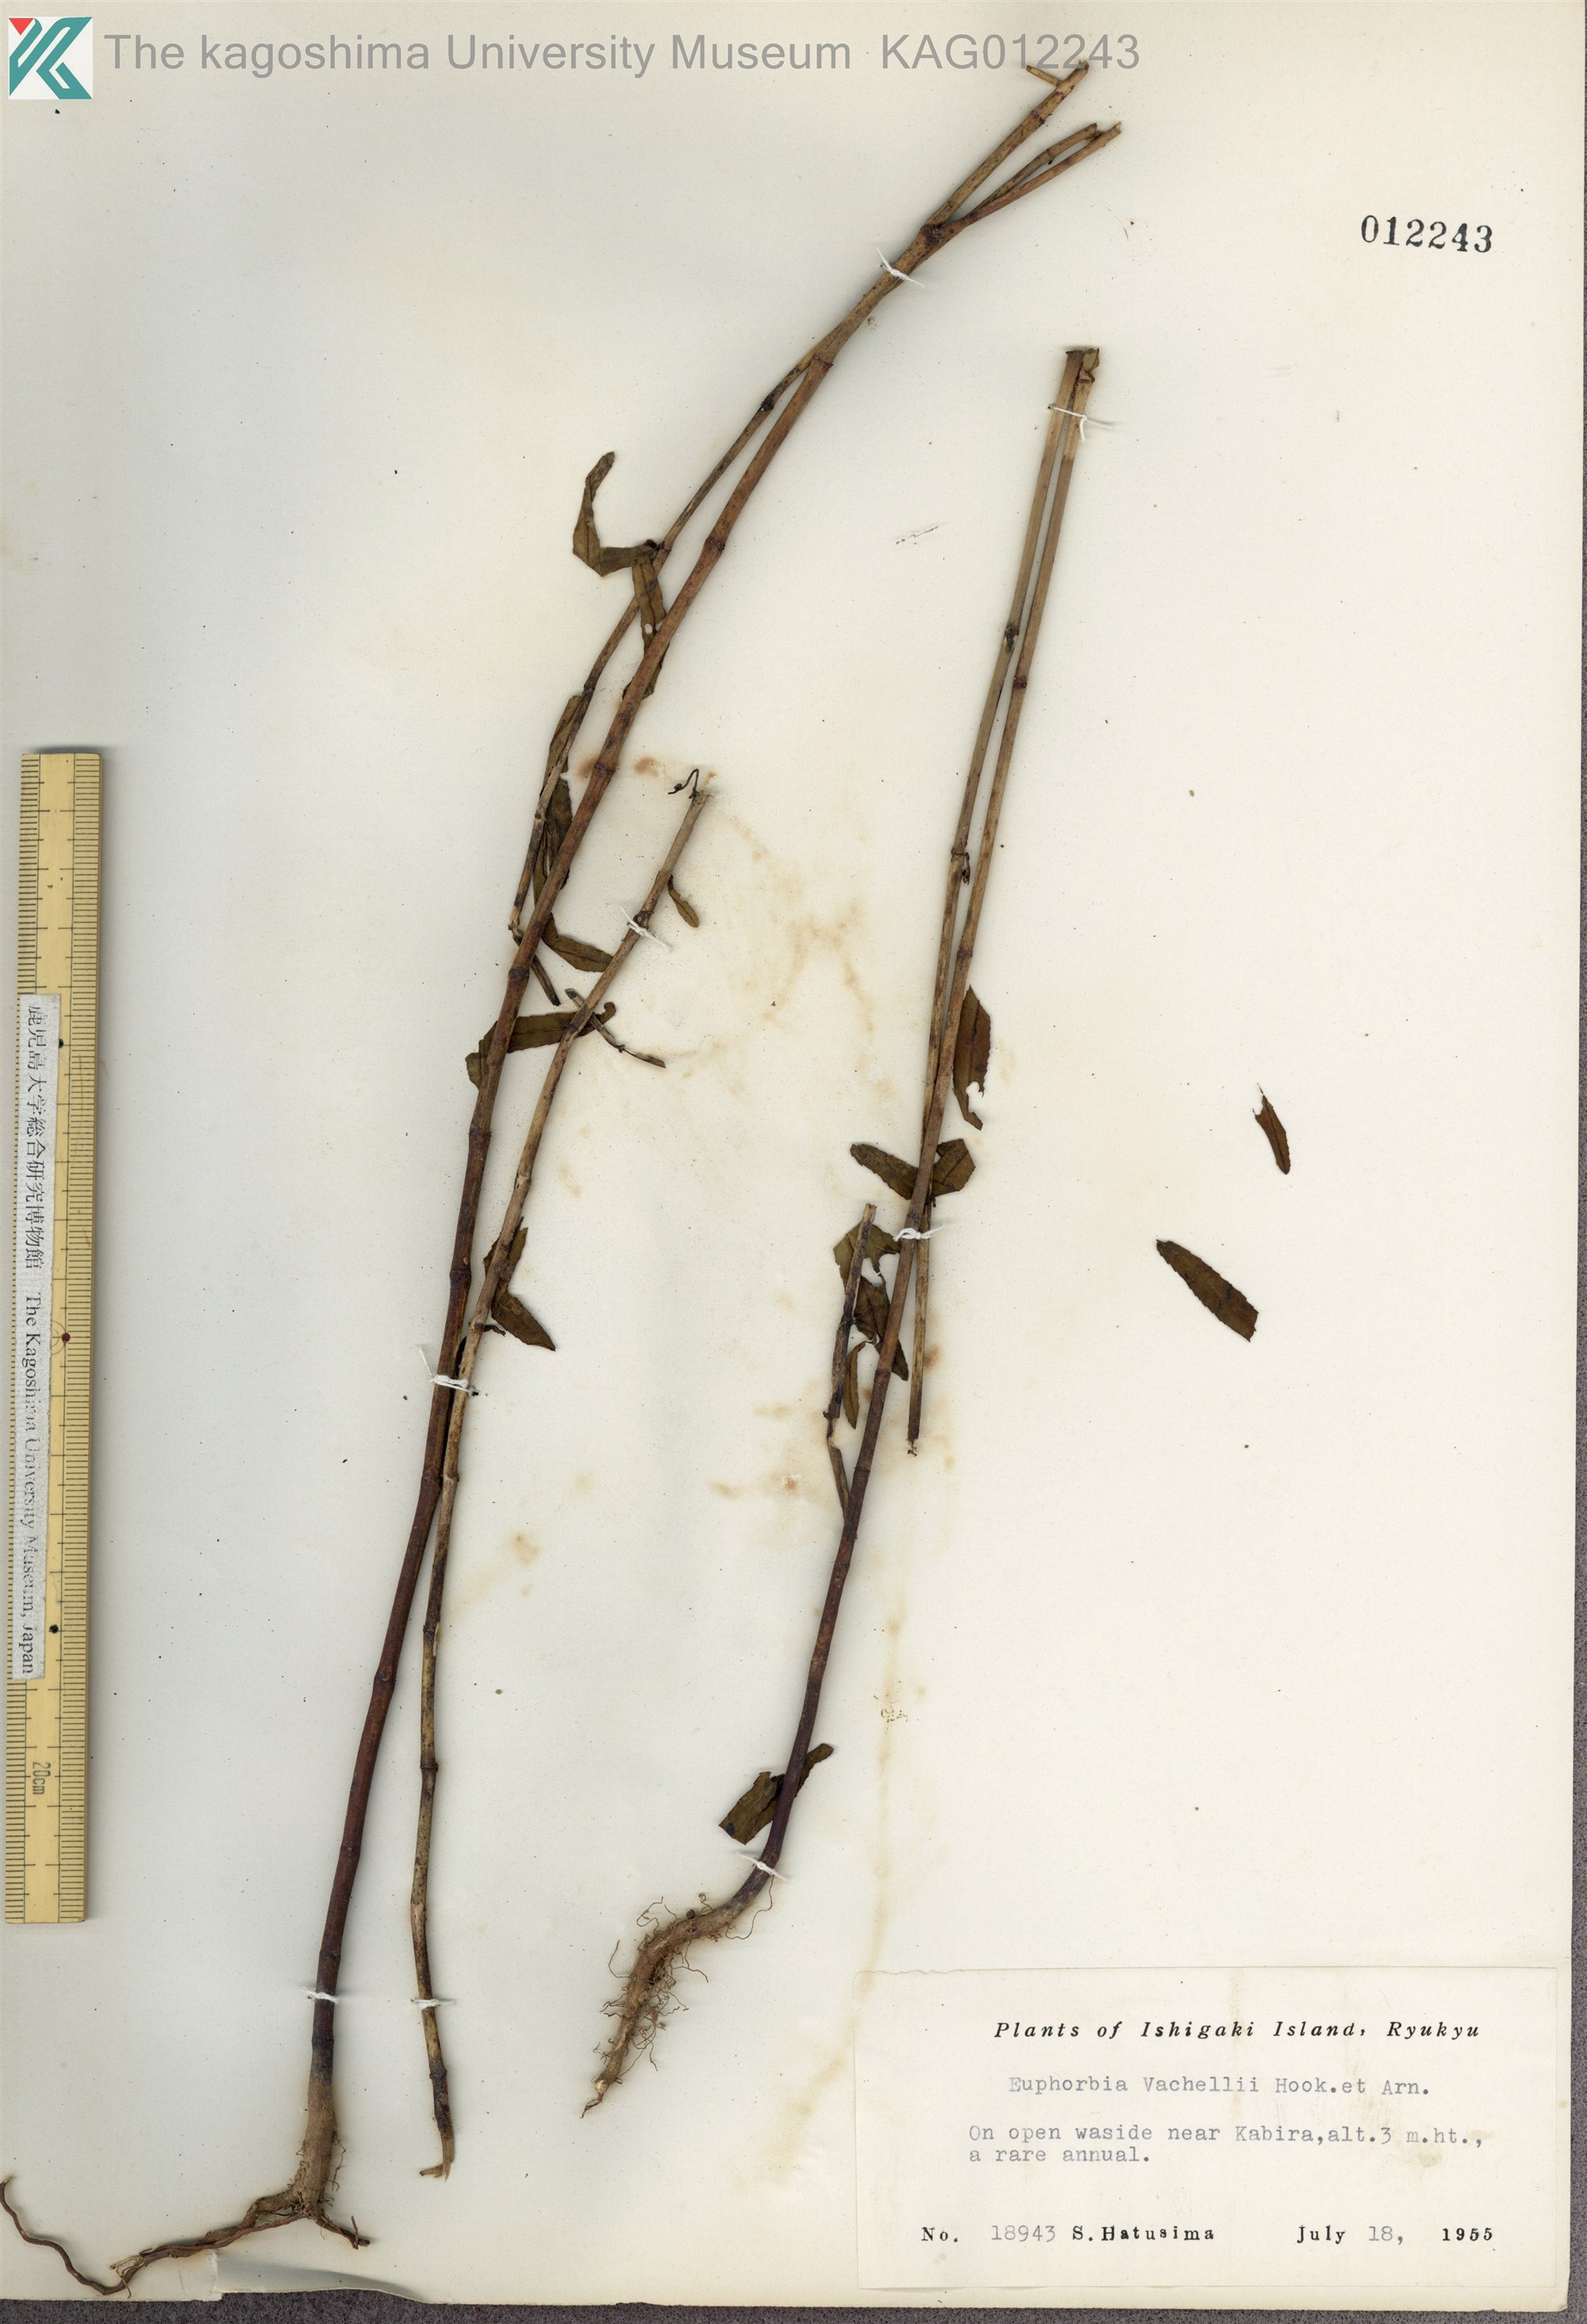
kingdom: Plantae
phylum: Tracheophyta
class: Magnoliopsida
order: Malpighiales
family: Euphorbiaceae
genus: Euphorbia
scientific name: Euphorbia bifida
